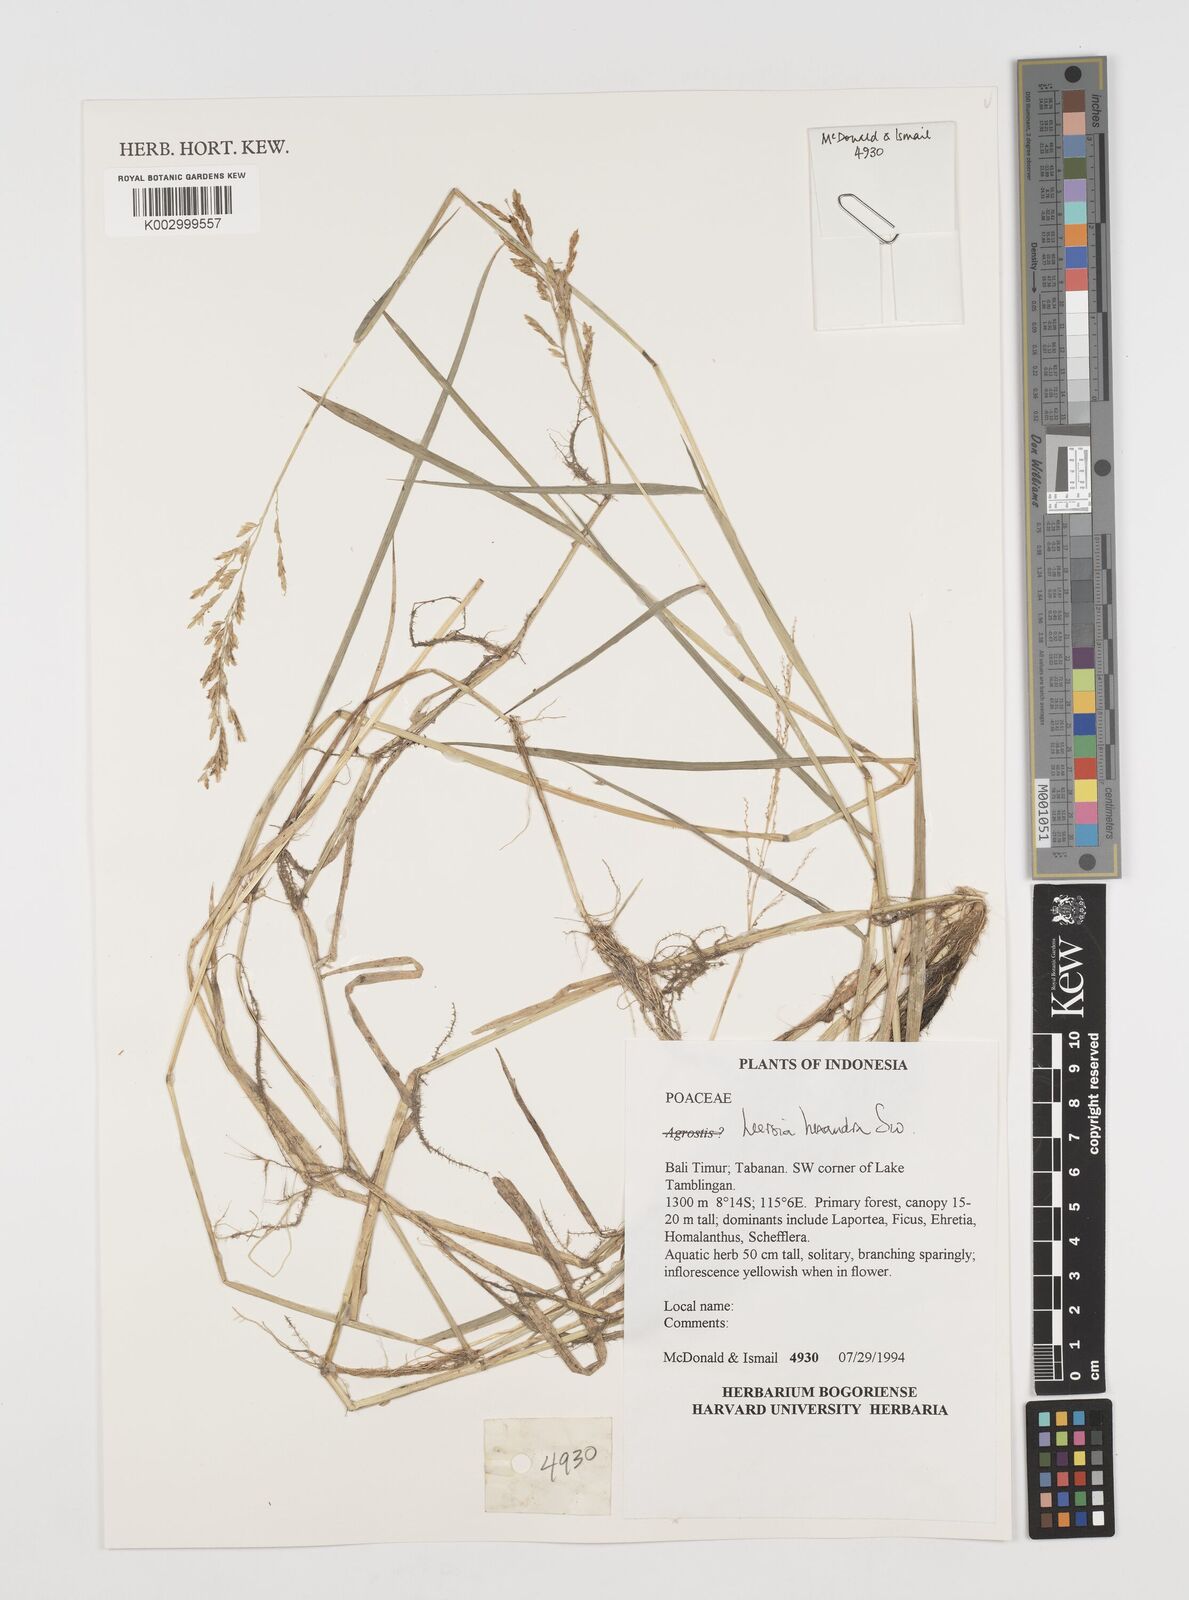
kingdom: Plantae
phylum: Tracheophyta
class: Liliopsida
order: Poales
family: Poaceae
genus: Leersia
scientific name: Leersia hexandra
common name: Southern cut grass
